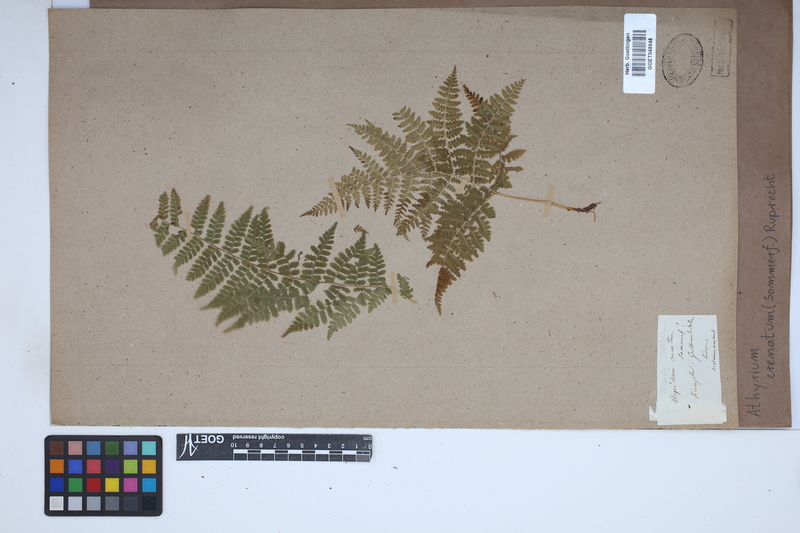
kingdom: Plantae
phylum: Tracheophyta
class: Polypodiopsida
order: Polypodiales
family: Athyriaceae
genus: Diplazium
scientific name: Diplazium sibiricum
